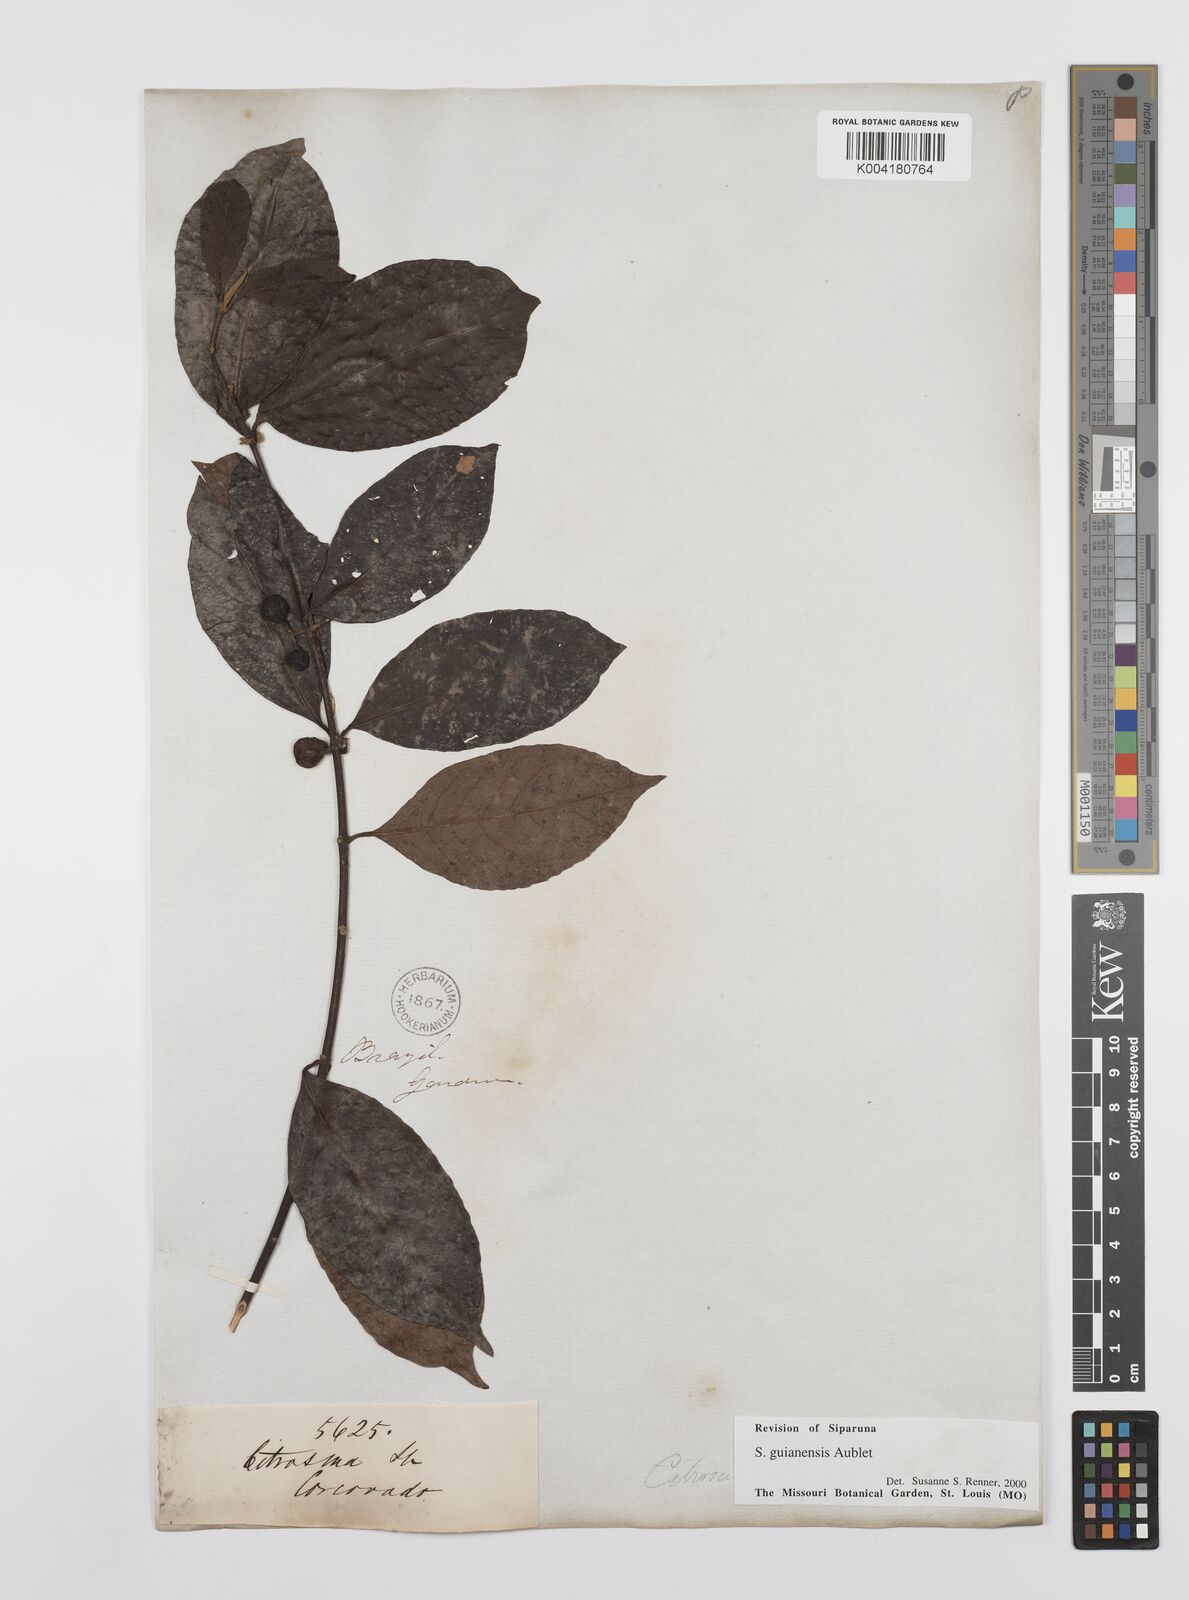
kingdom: Plantae
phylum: Tracheophyta
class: Magnoliopsida
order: Laurales
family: Siparunaceae
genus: Siparuna
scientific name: Siparuna guianensis
